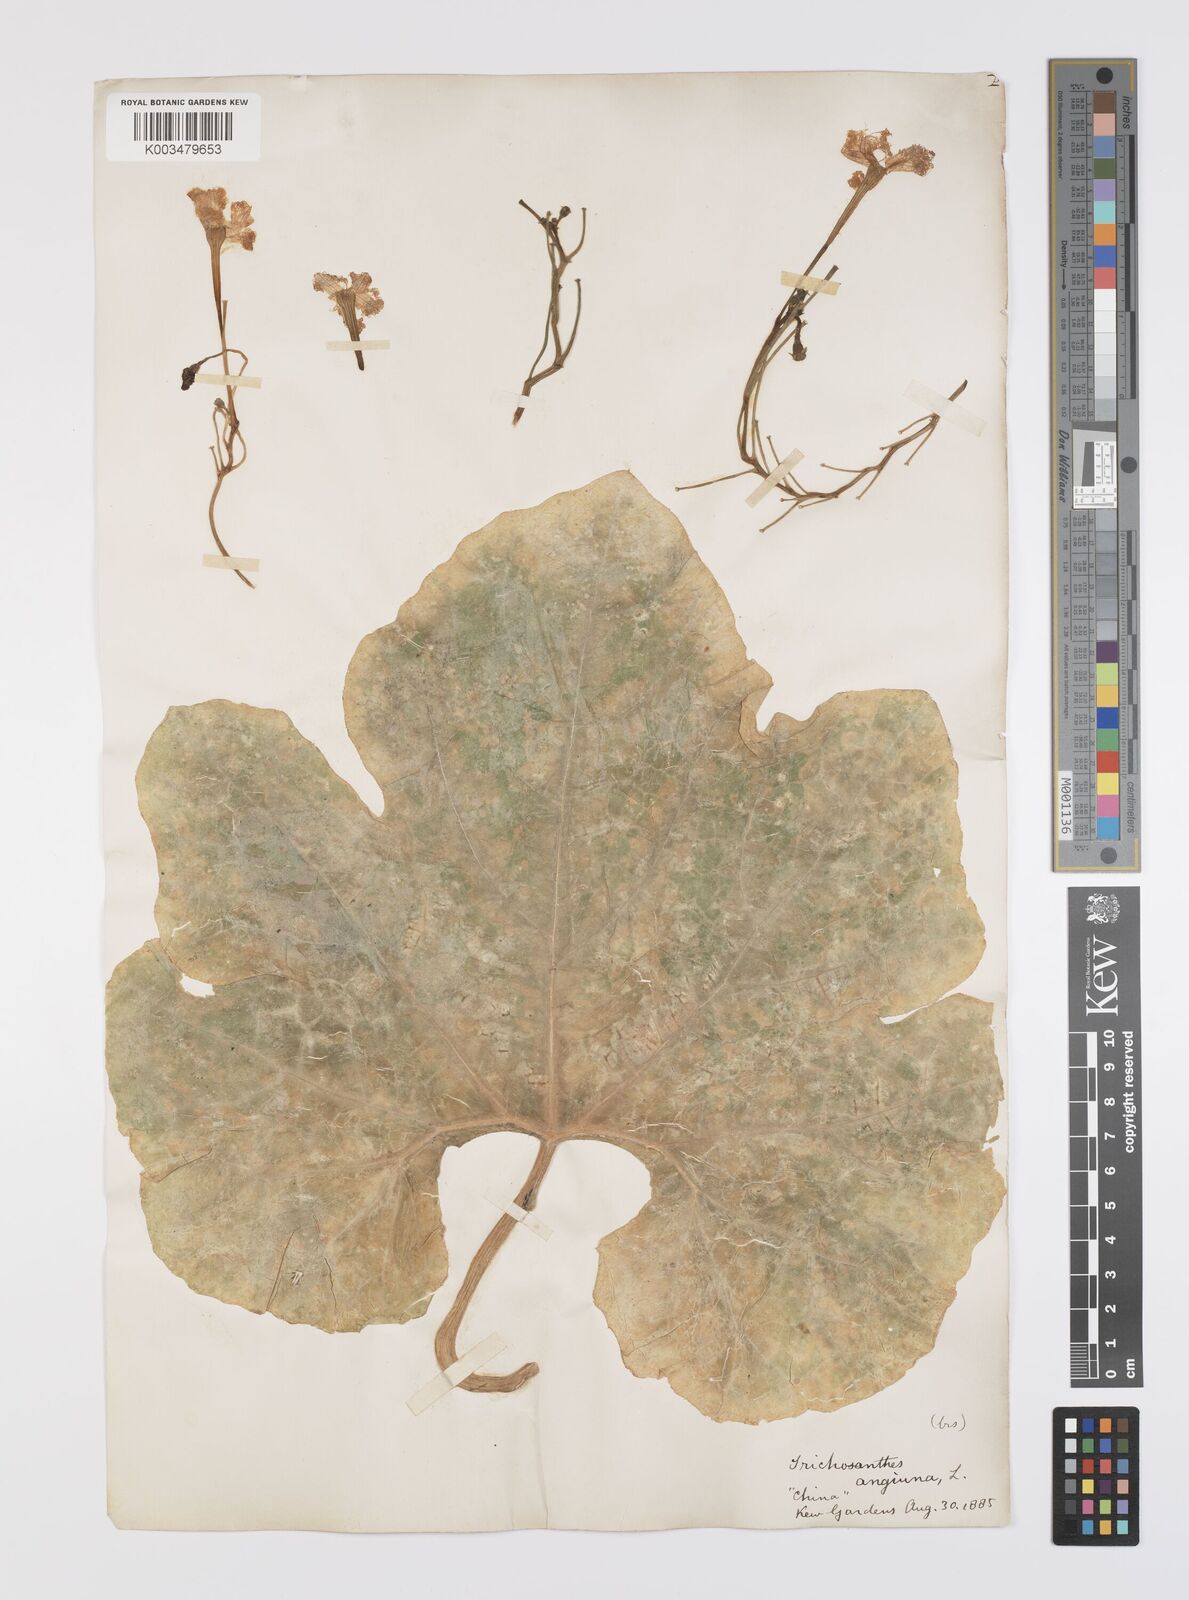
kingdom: Plantae
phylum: Tracheophyta
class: Magnoliopsida
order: Cucurbitales
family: Cucurbitaceae
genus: Trichosanthes
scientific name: Trichosanthes cucumerina
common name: Snakegourd
